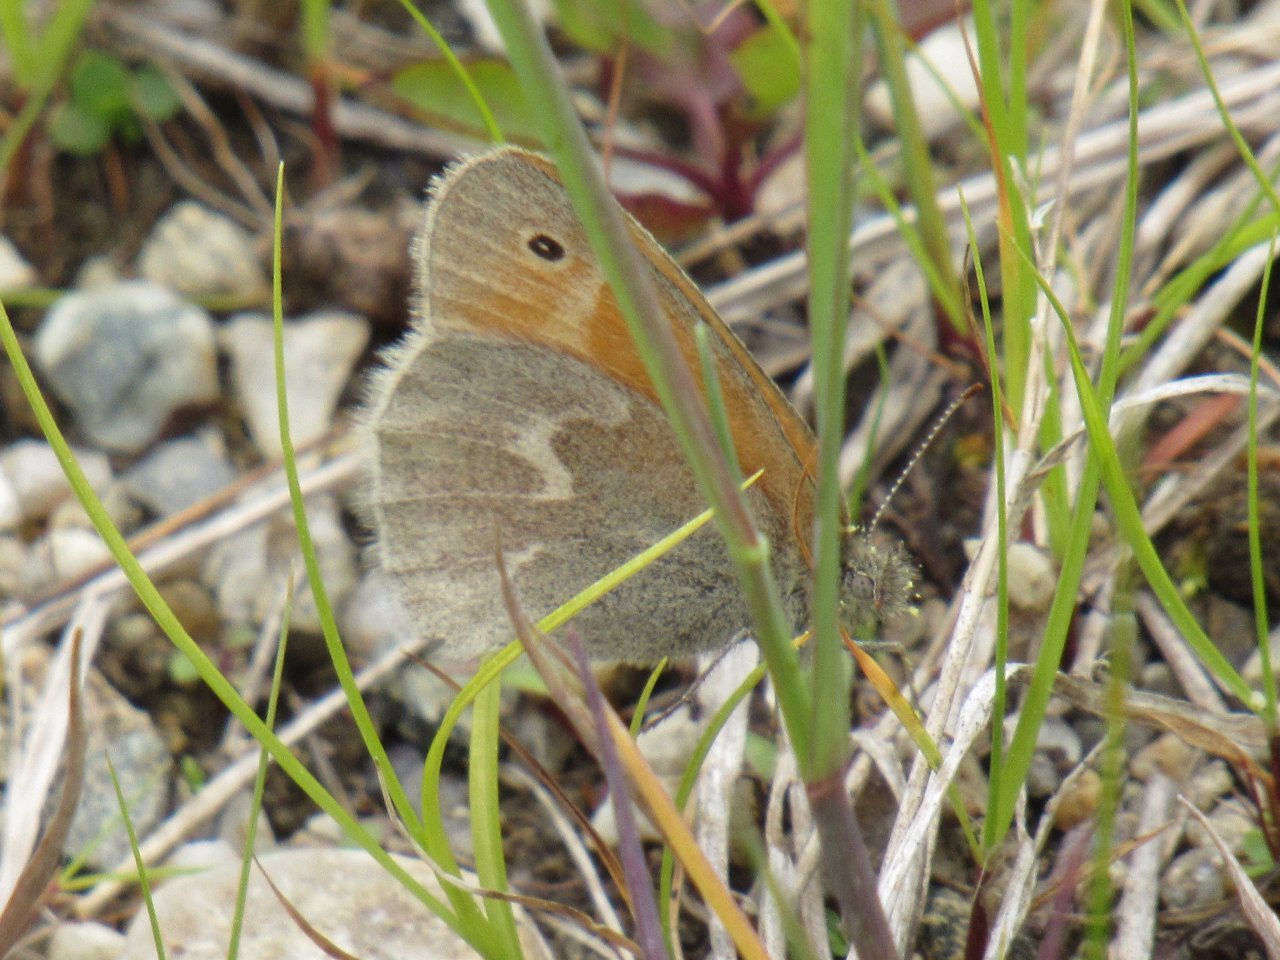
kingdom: Animalia
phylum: Arthropoda
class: Insecta
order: Lepidoptera
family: Nymphalidae
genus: Coenonympha
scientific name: Coenonympha tullia
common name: Large Heath
